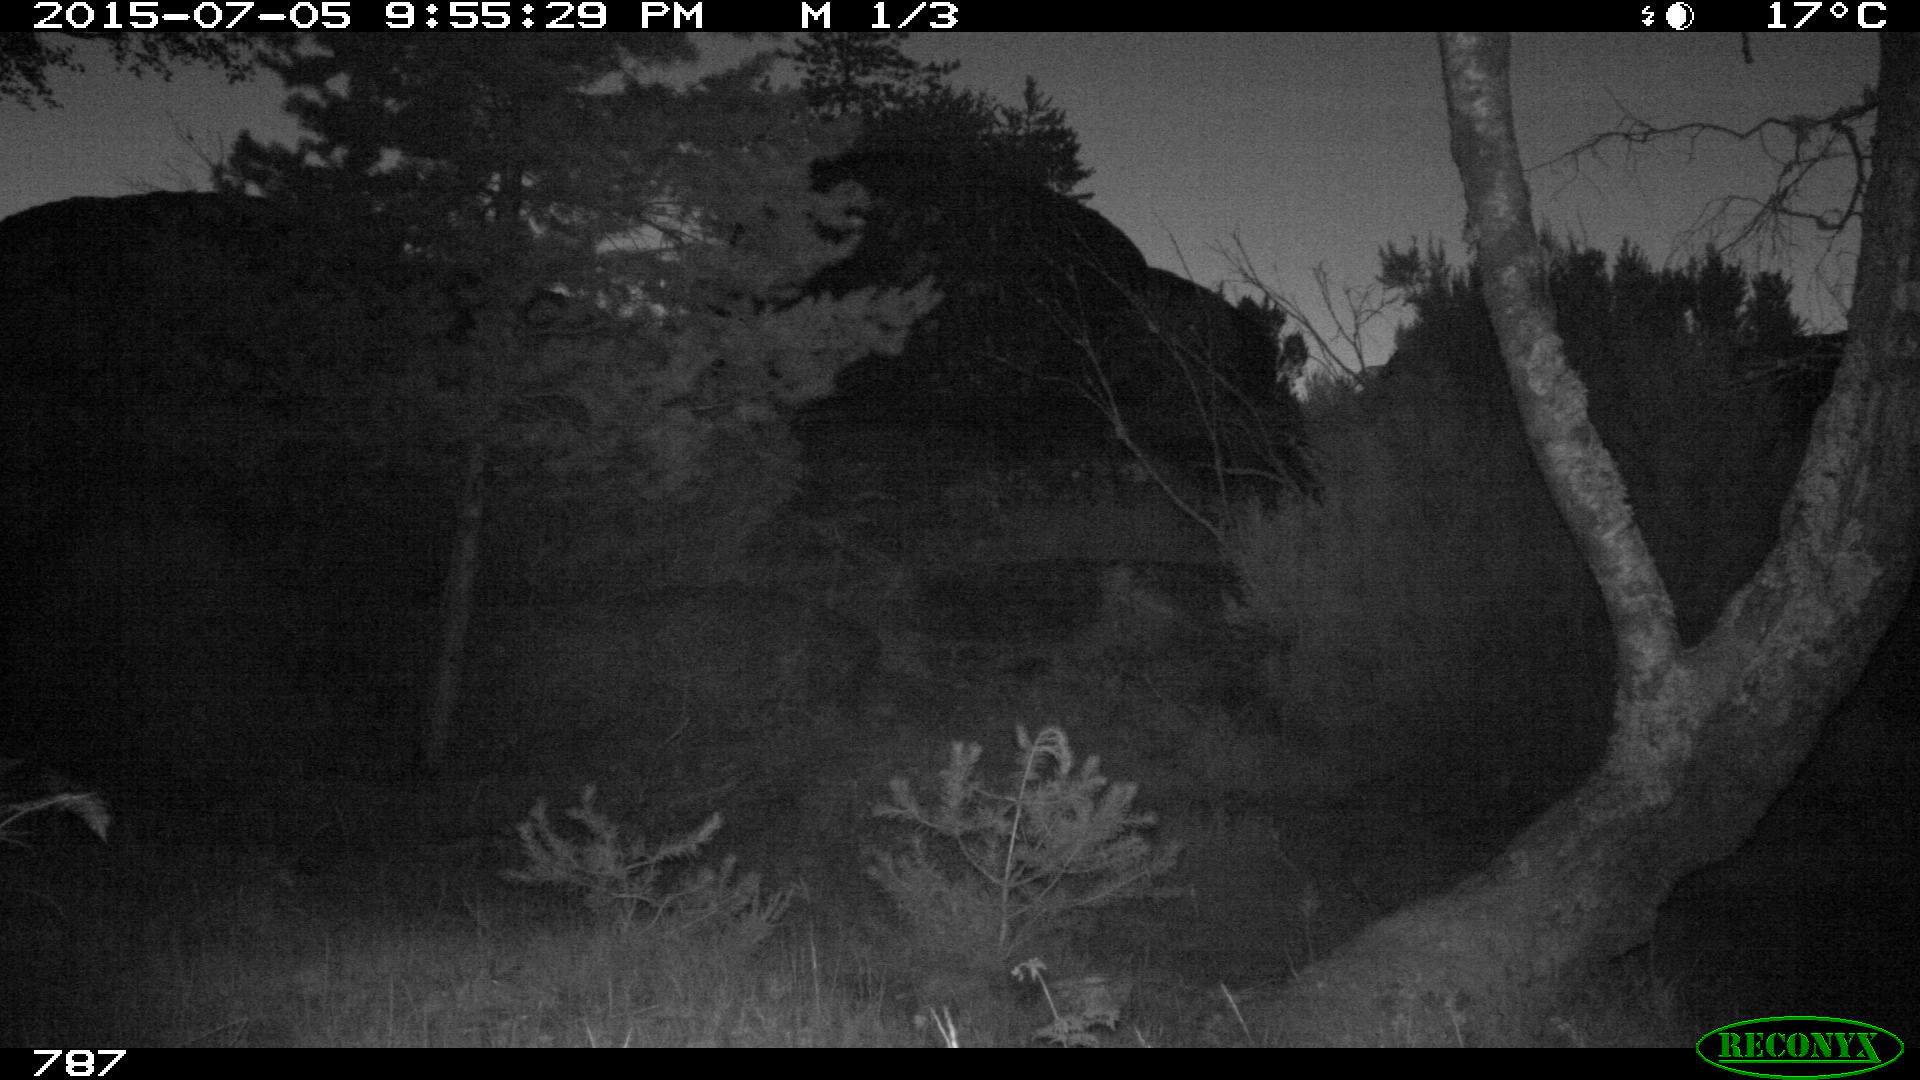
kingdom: Animalia
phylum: Chordata
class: Mammalia
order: Perissodactyla
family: Equidae
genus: Equus
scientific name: Equus caballus
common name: Horse
